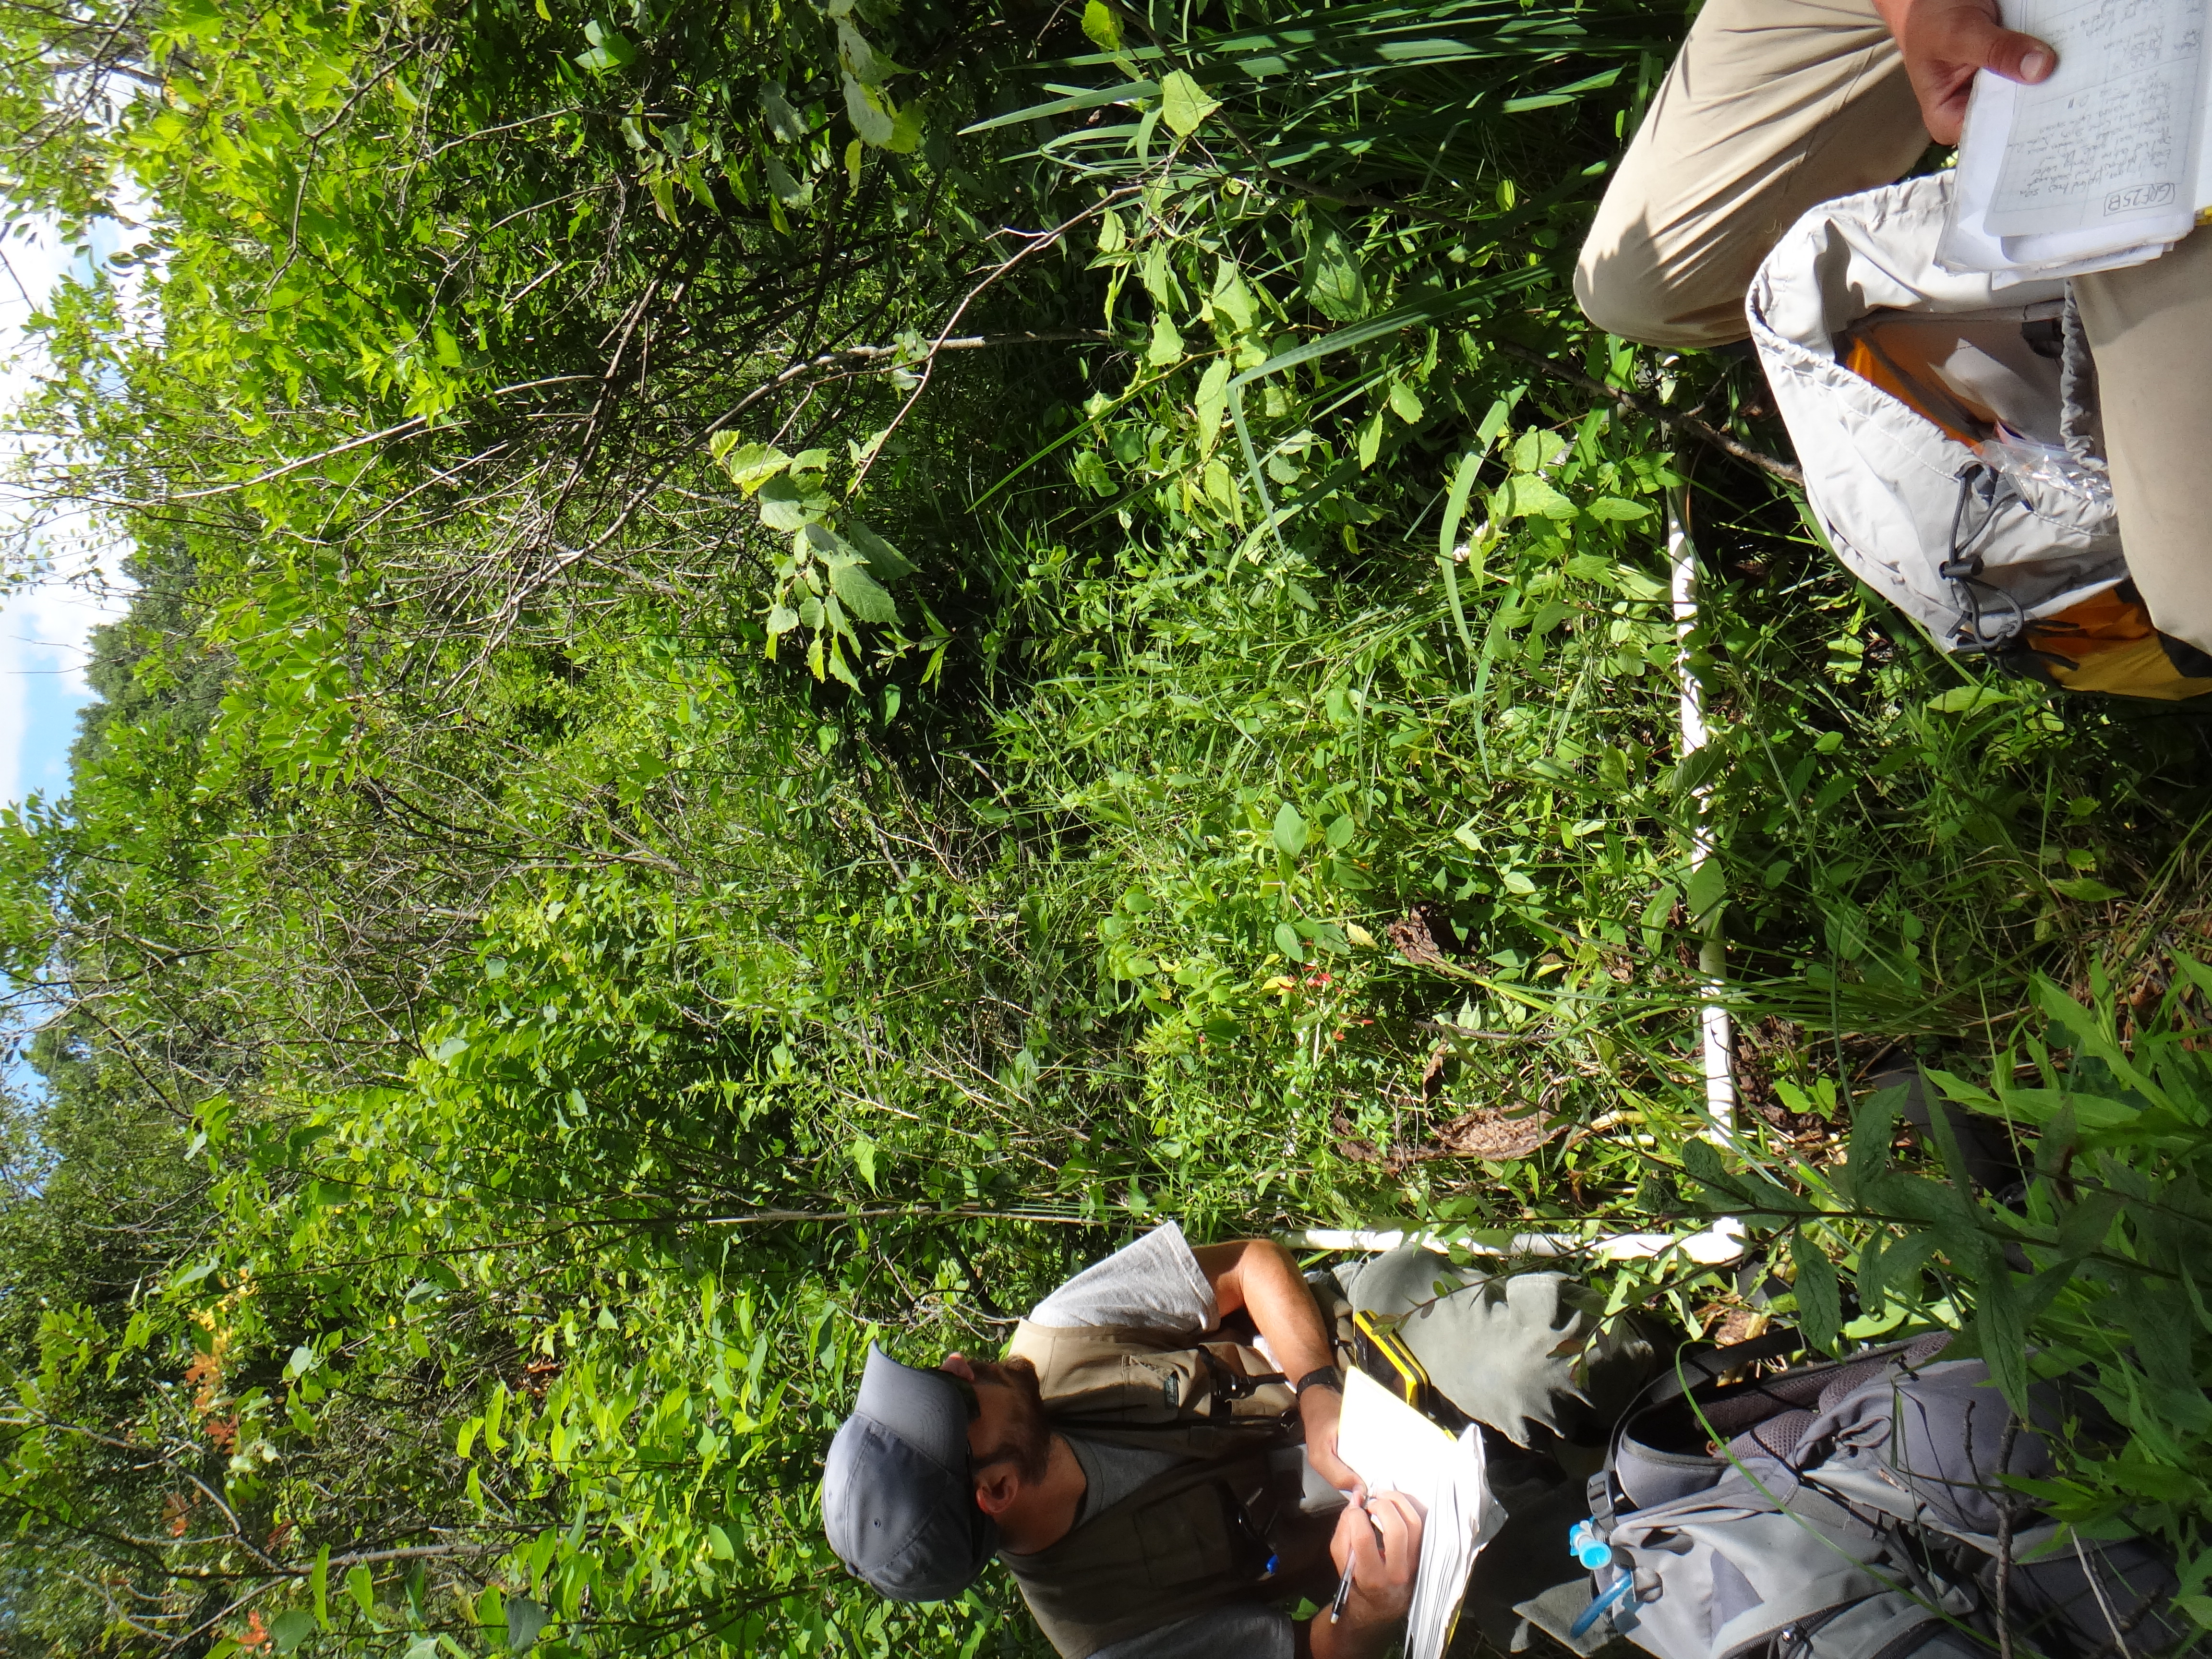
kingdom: Plantae
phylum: Tracheophyta
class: Magnoliopsida
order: Asterales
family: Asteraceae
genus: Cirsium
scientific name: Cirsium muticum
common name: Dunce-nettle
